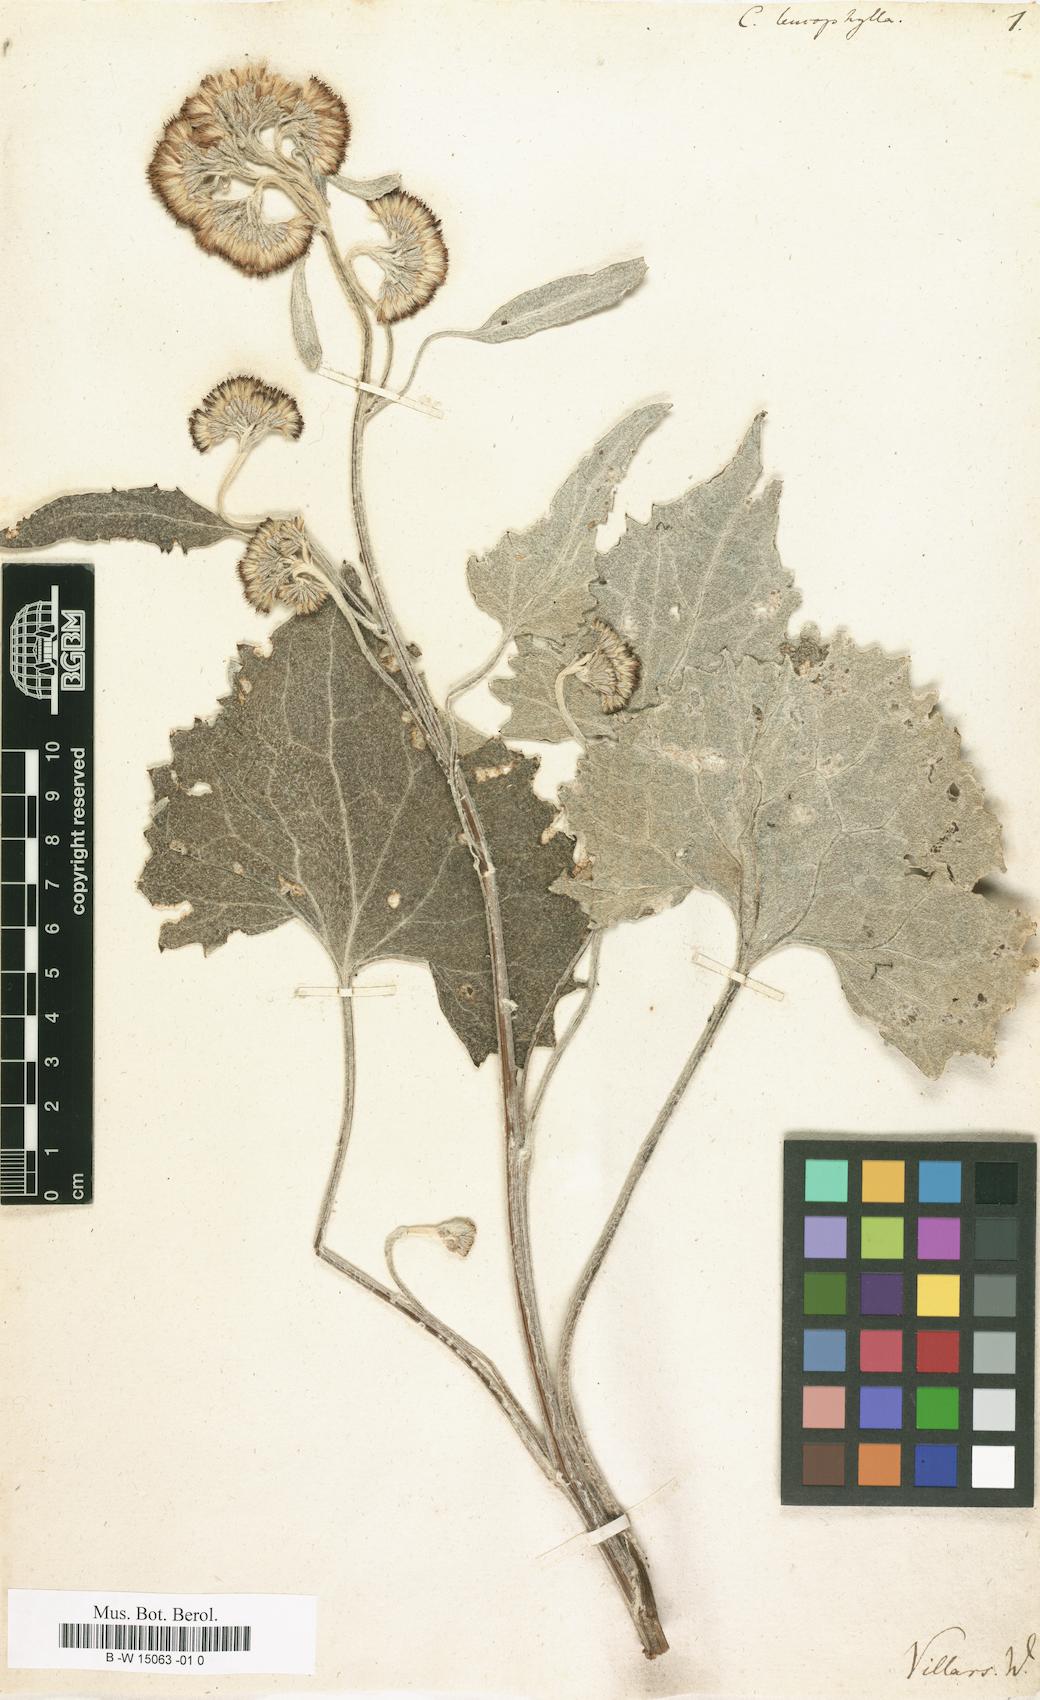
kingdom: Plantae
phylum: Tracheophyta
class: Magnoliopsida
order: Asterales
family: Asteraceae
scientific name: Asteraceae
